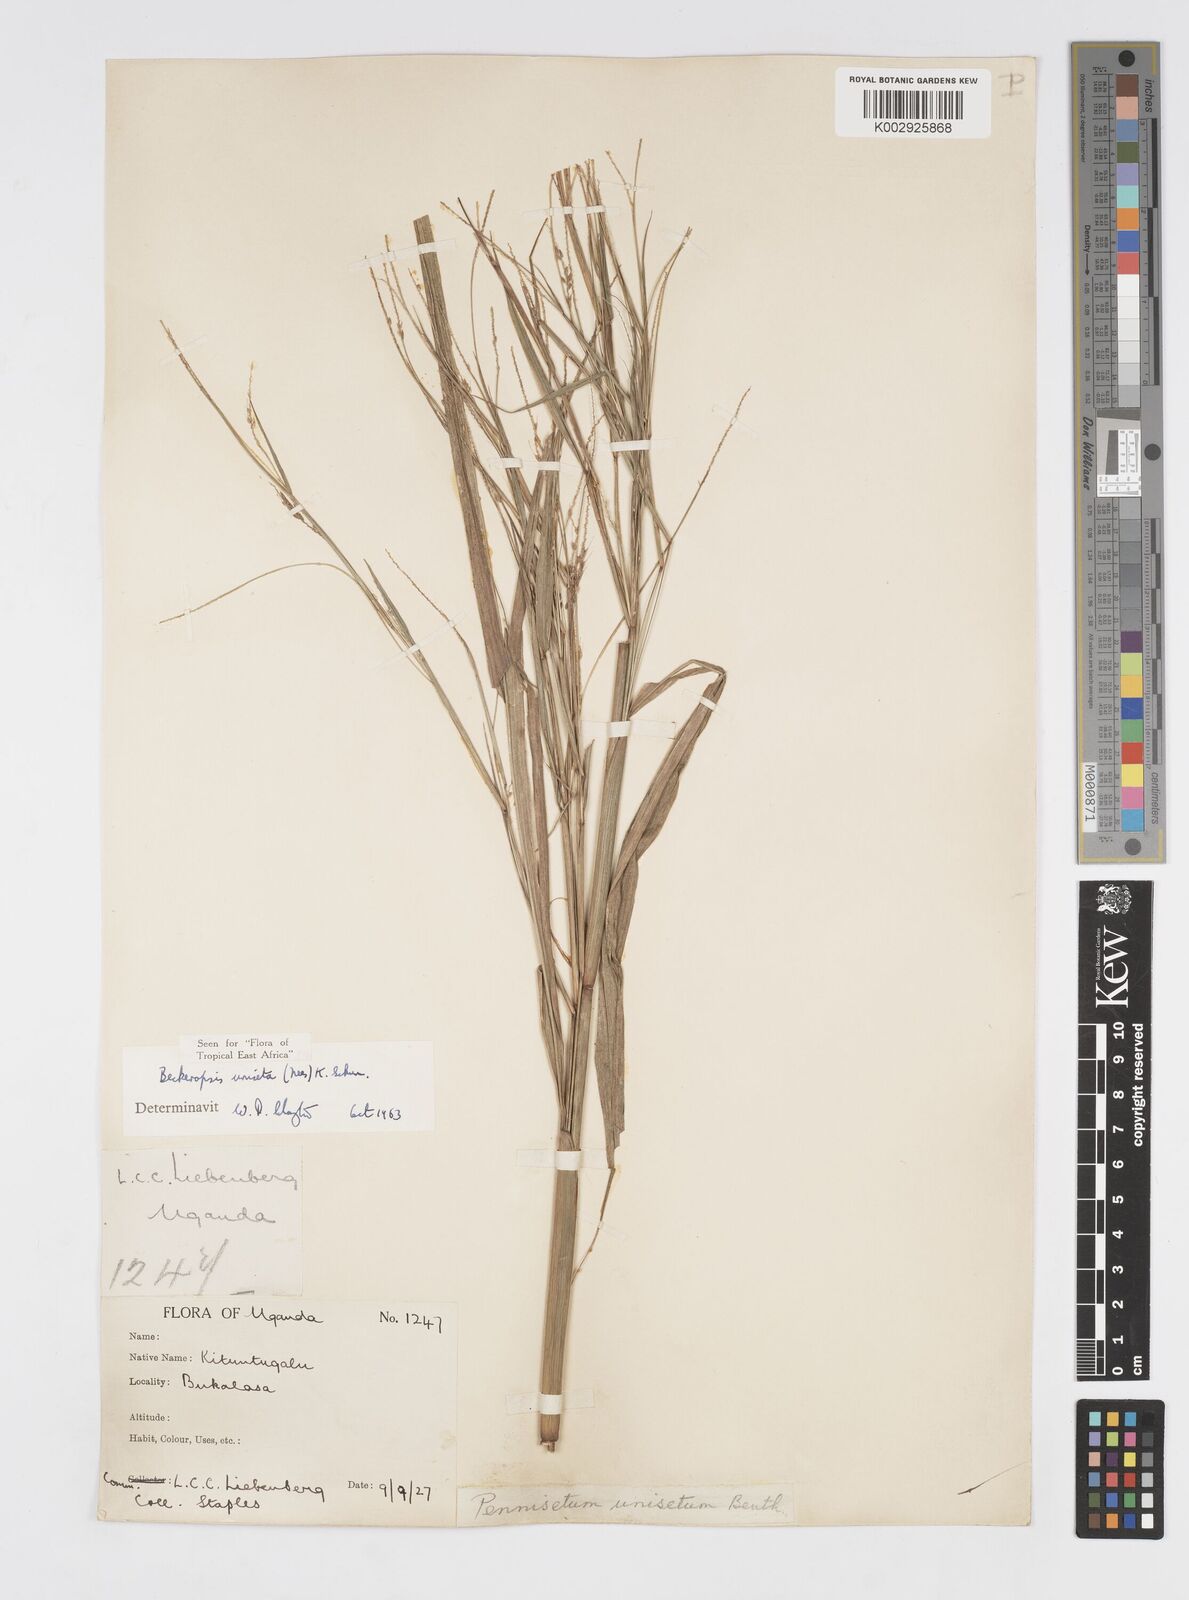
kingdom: Plantae
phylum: Tracheophyta
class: Liliopsida
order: Poales
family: Poaceae
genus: Cenchrus
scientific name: Cenchrus unisetus
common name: Natal grass
